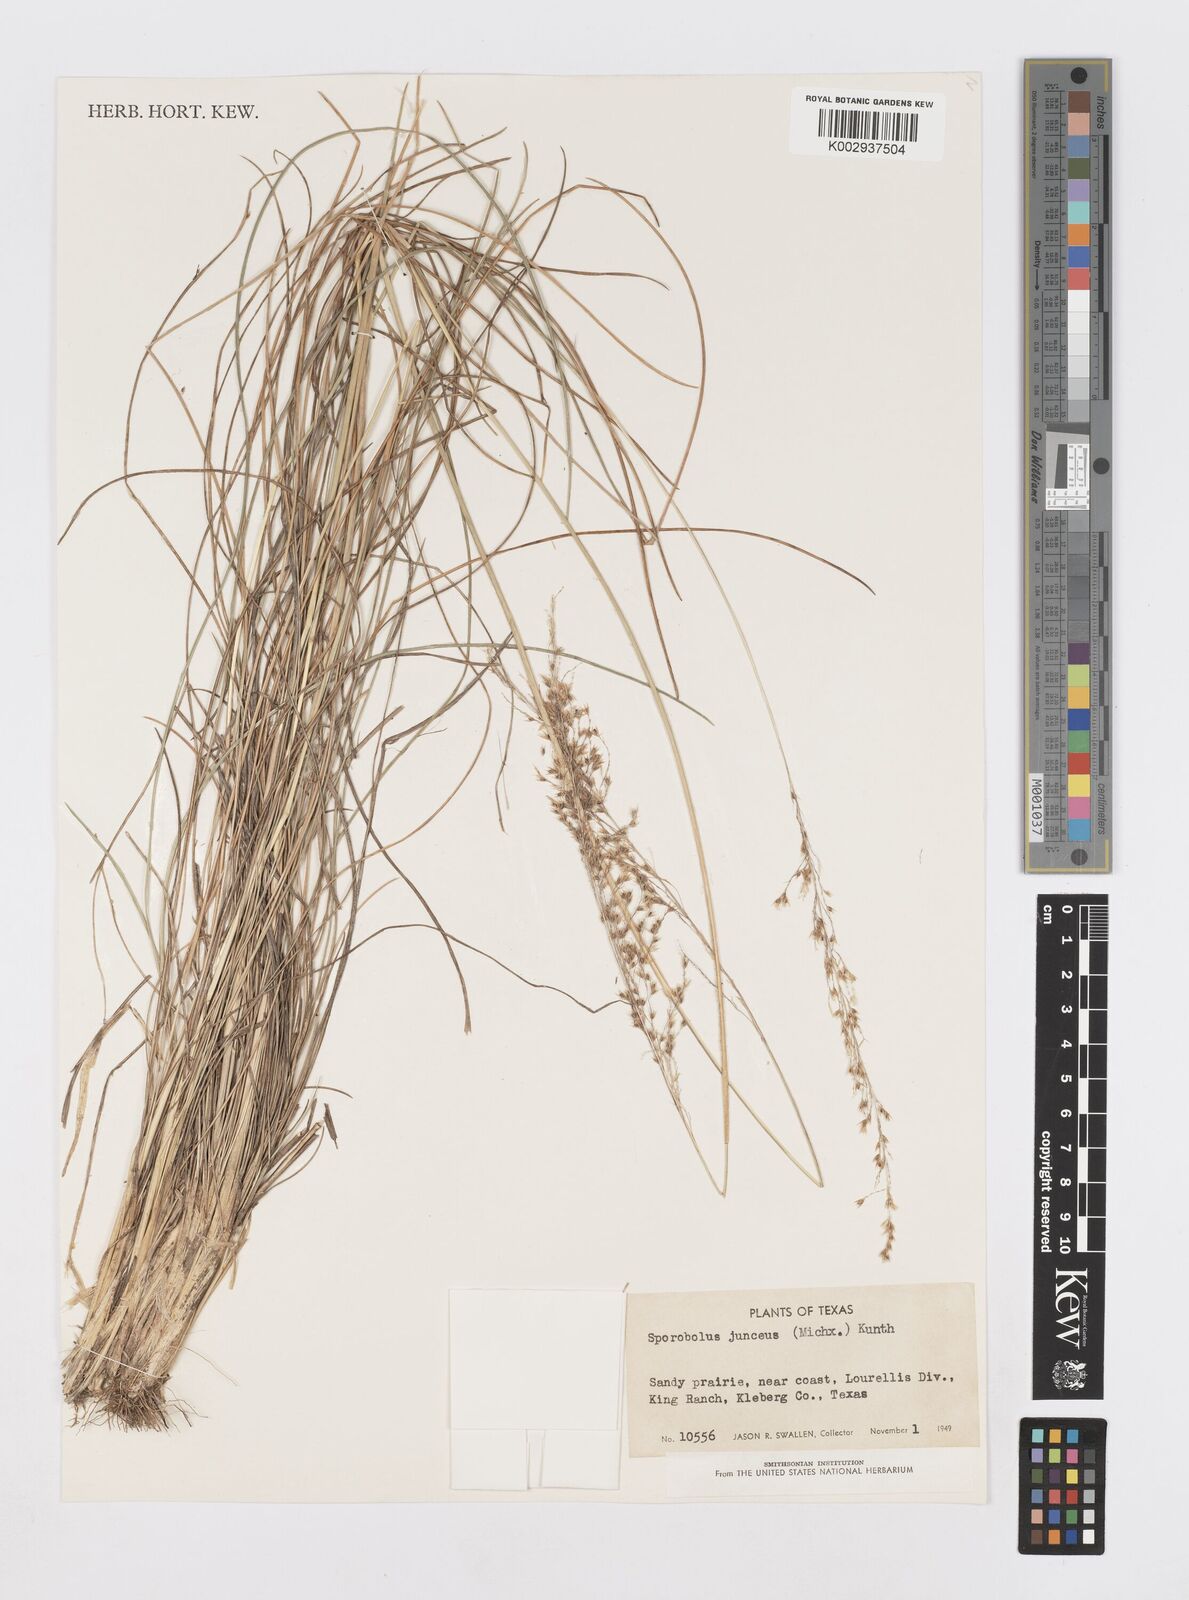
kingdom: Plantae
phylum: Tracheophyta
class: Liliopsida
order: Poales
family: Poaceae
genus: Sporobolus
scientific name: Sporobolus junceus
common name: Lizard grass
